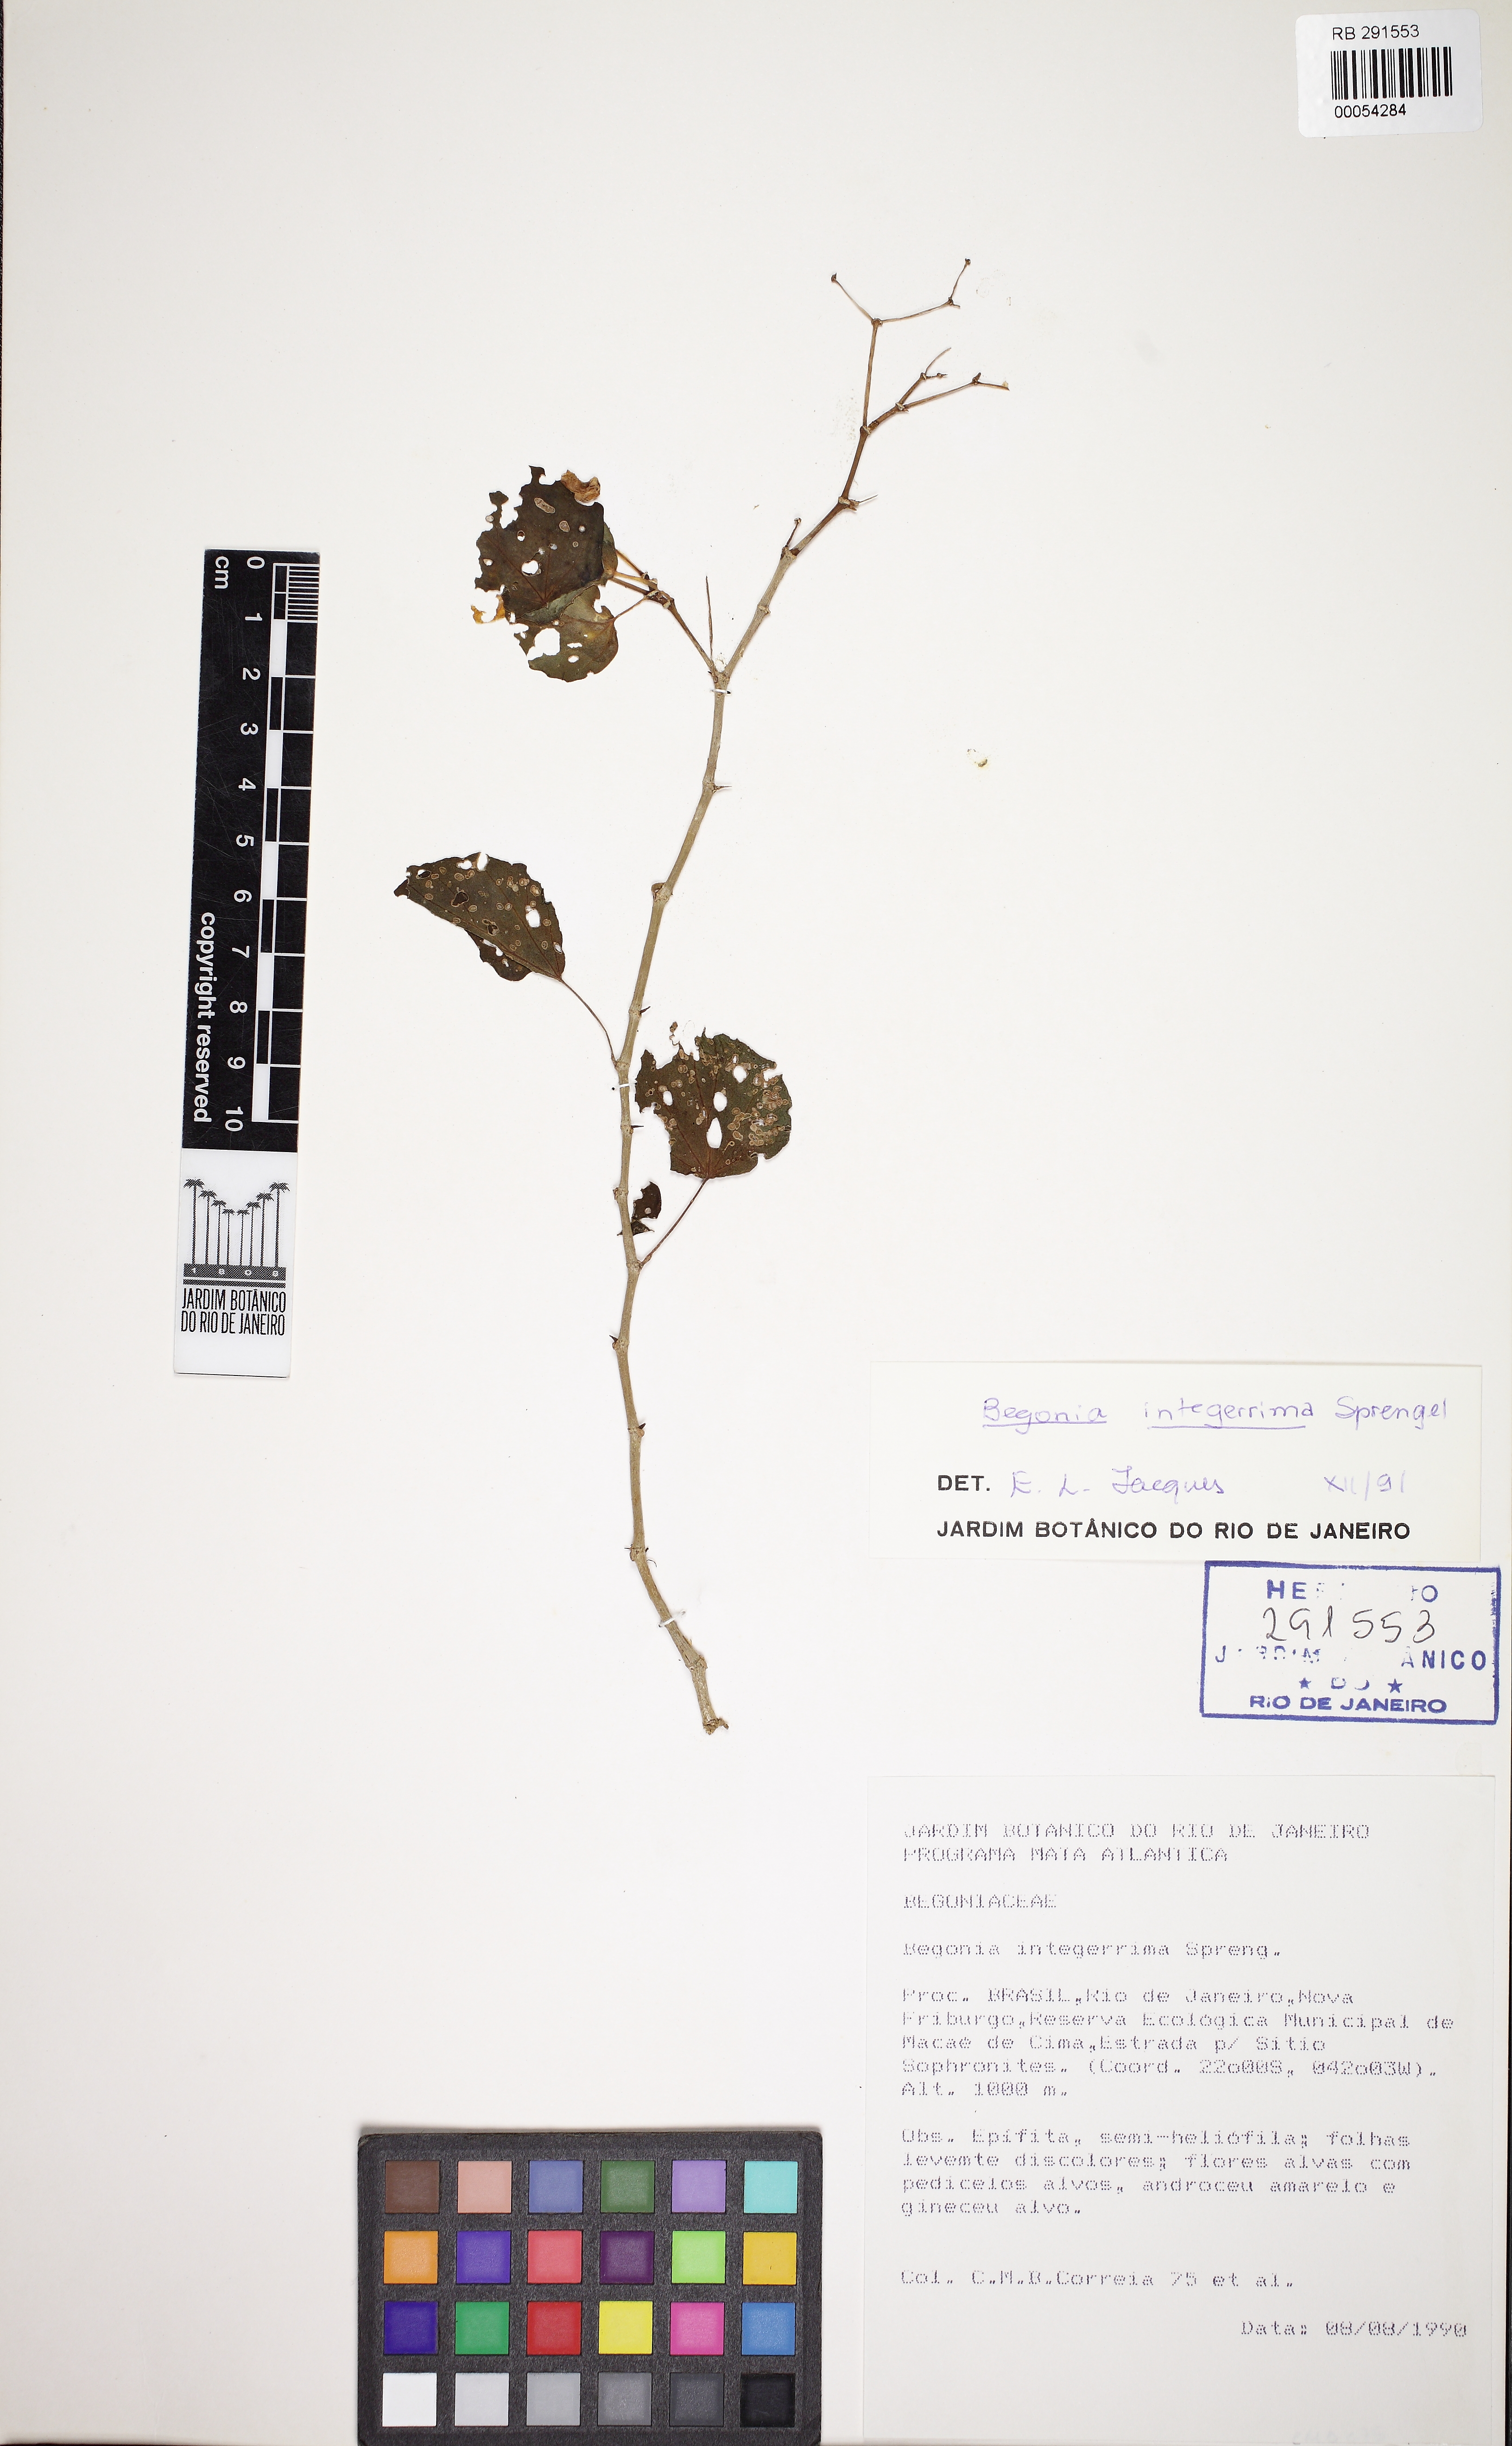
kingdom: Plantae
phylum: Tracheophyta
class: Magnoliopsida
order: Cucurbitales
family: Begoniaceae
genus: Begonia
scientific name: Begonia integerrima
